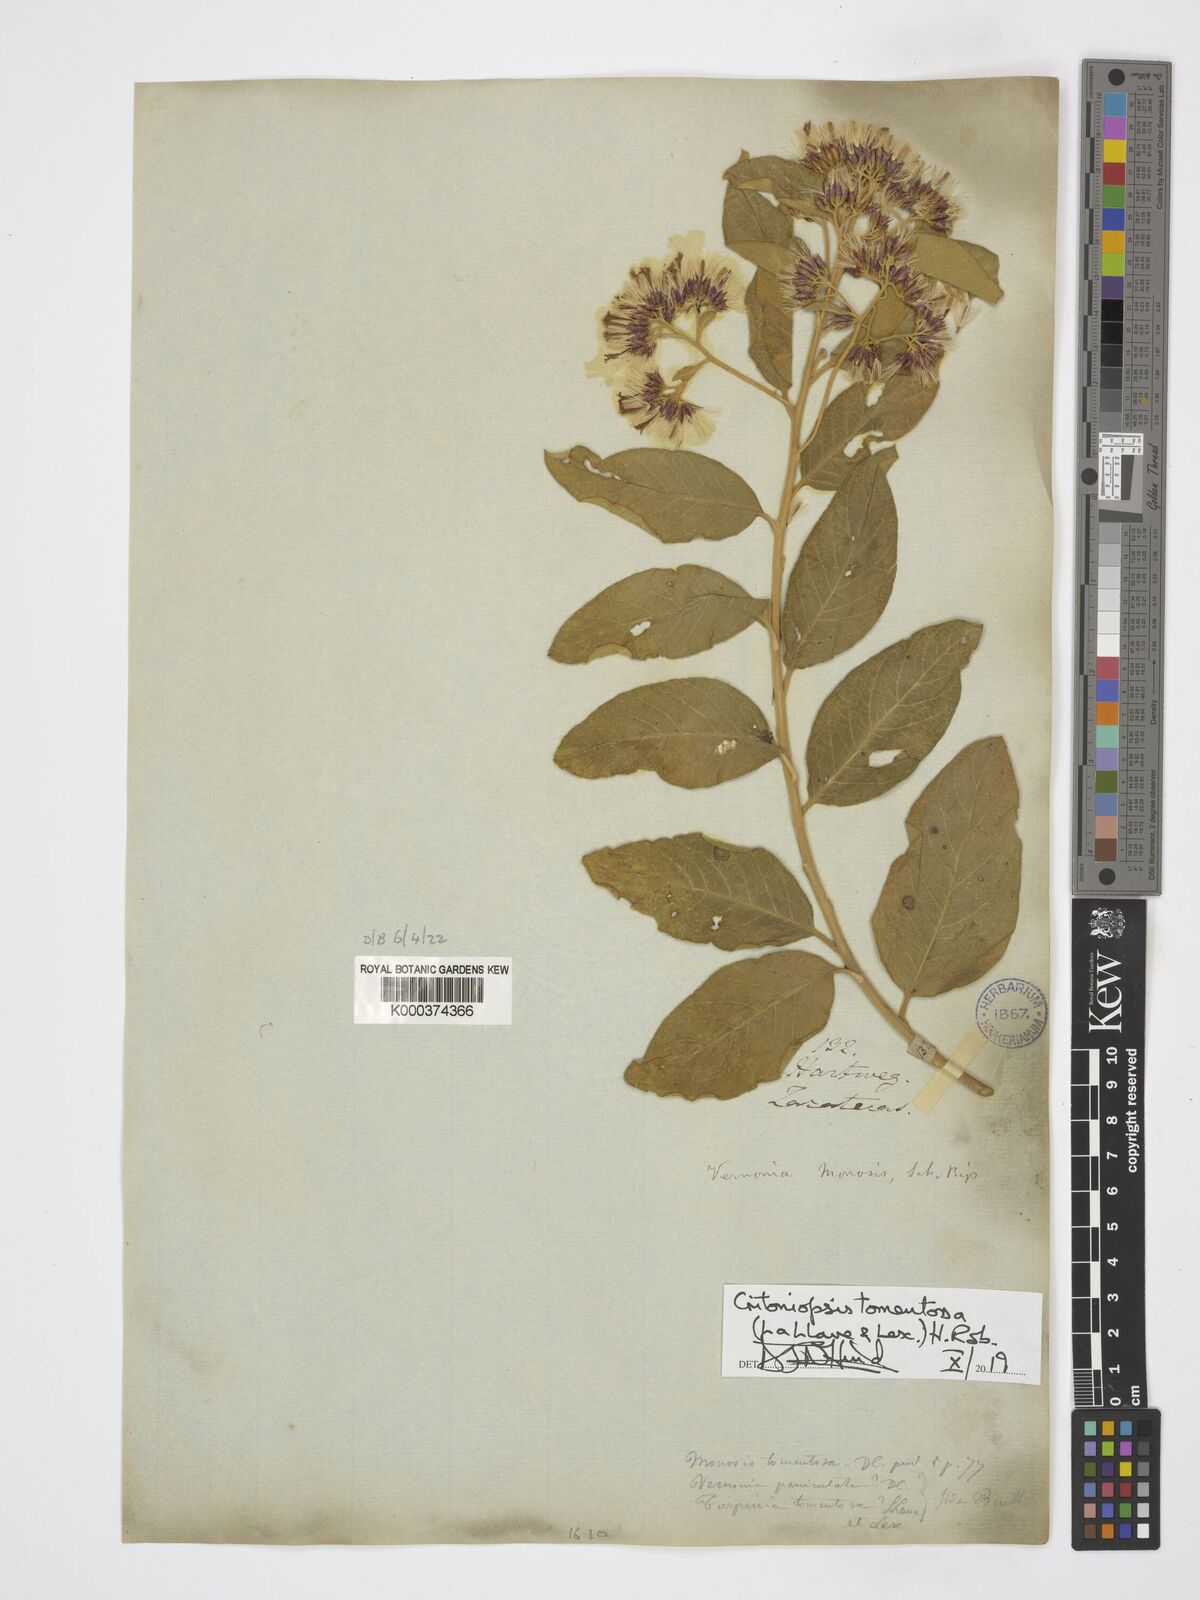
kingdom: Plantae
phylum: Tracheophyta
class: Magnoliopsida
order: Asterales
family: Asteraceae
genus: Eremosis
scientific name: Eremosis tomentosa
